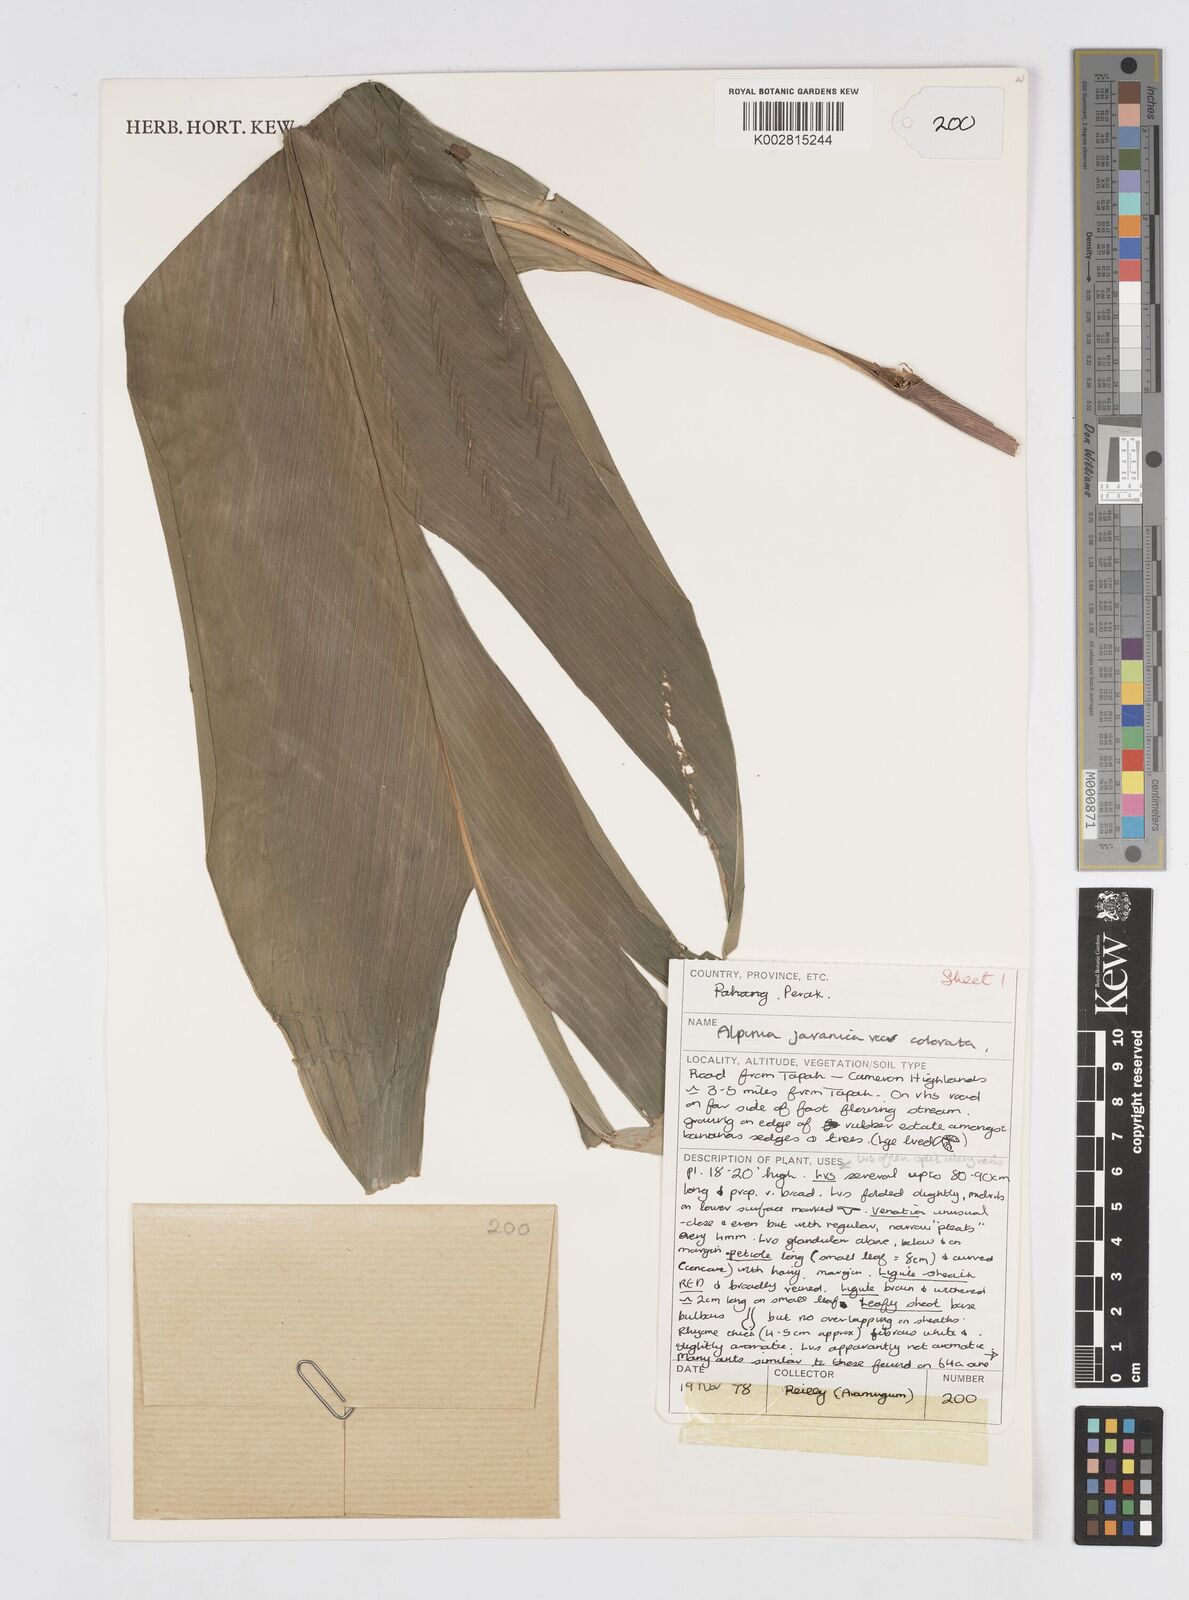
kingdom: Plantae
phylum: Tracheophyta
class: Liliopsida
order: Zingiberales
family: Zingiberaceae
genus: Alpinia
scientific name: Alpinia javanica
